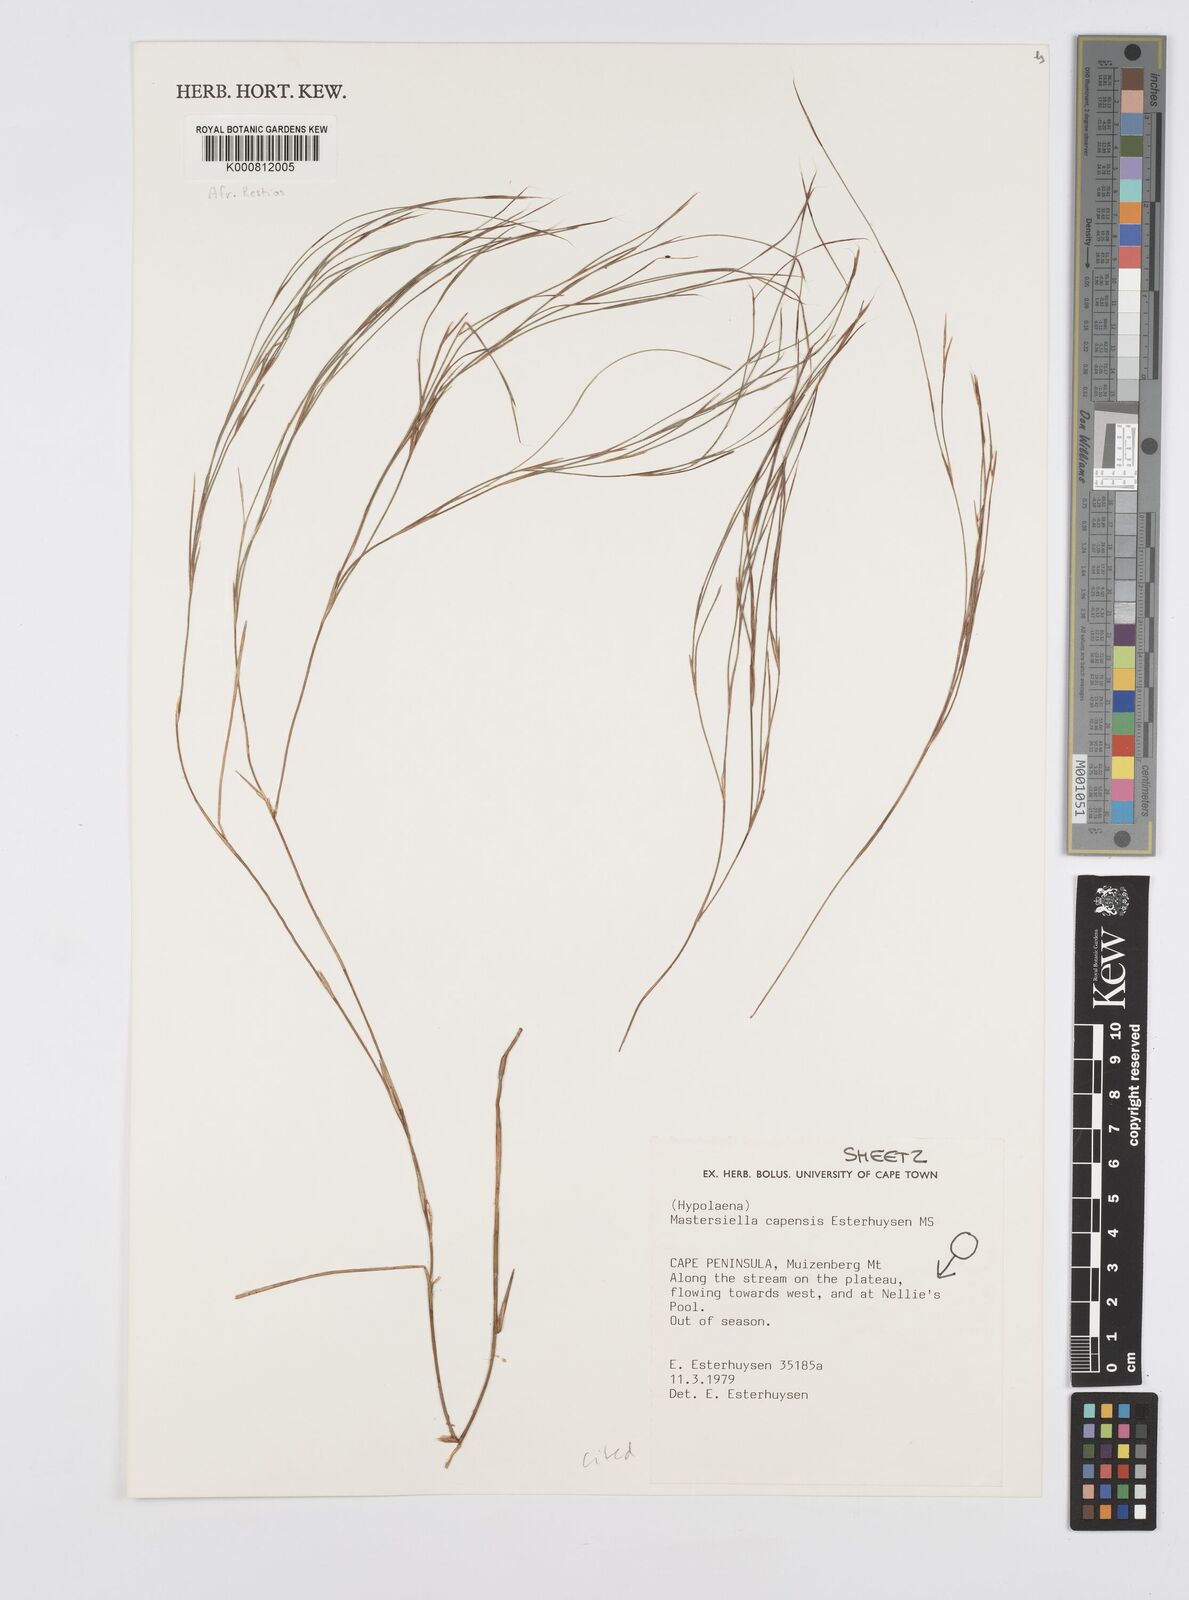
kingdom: Plantae
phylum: Tracheophyta
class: Liliopsida
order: Poales
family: Restionaceae
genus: Anthochortus
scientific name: Anthochortus capensis
